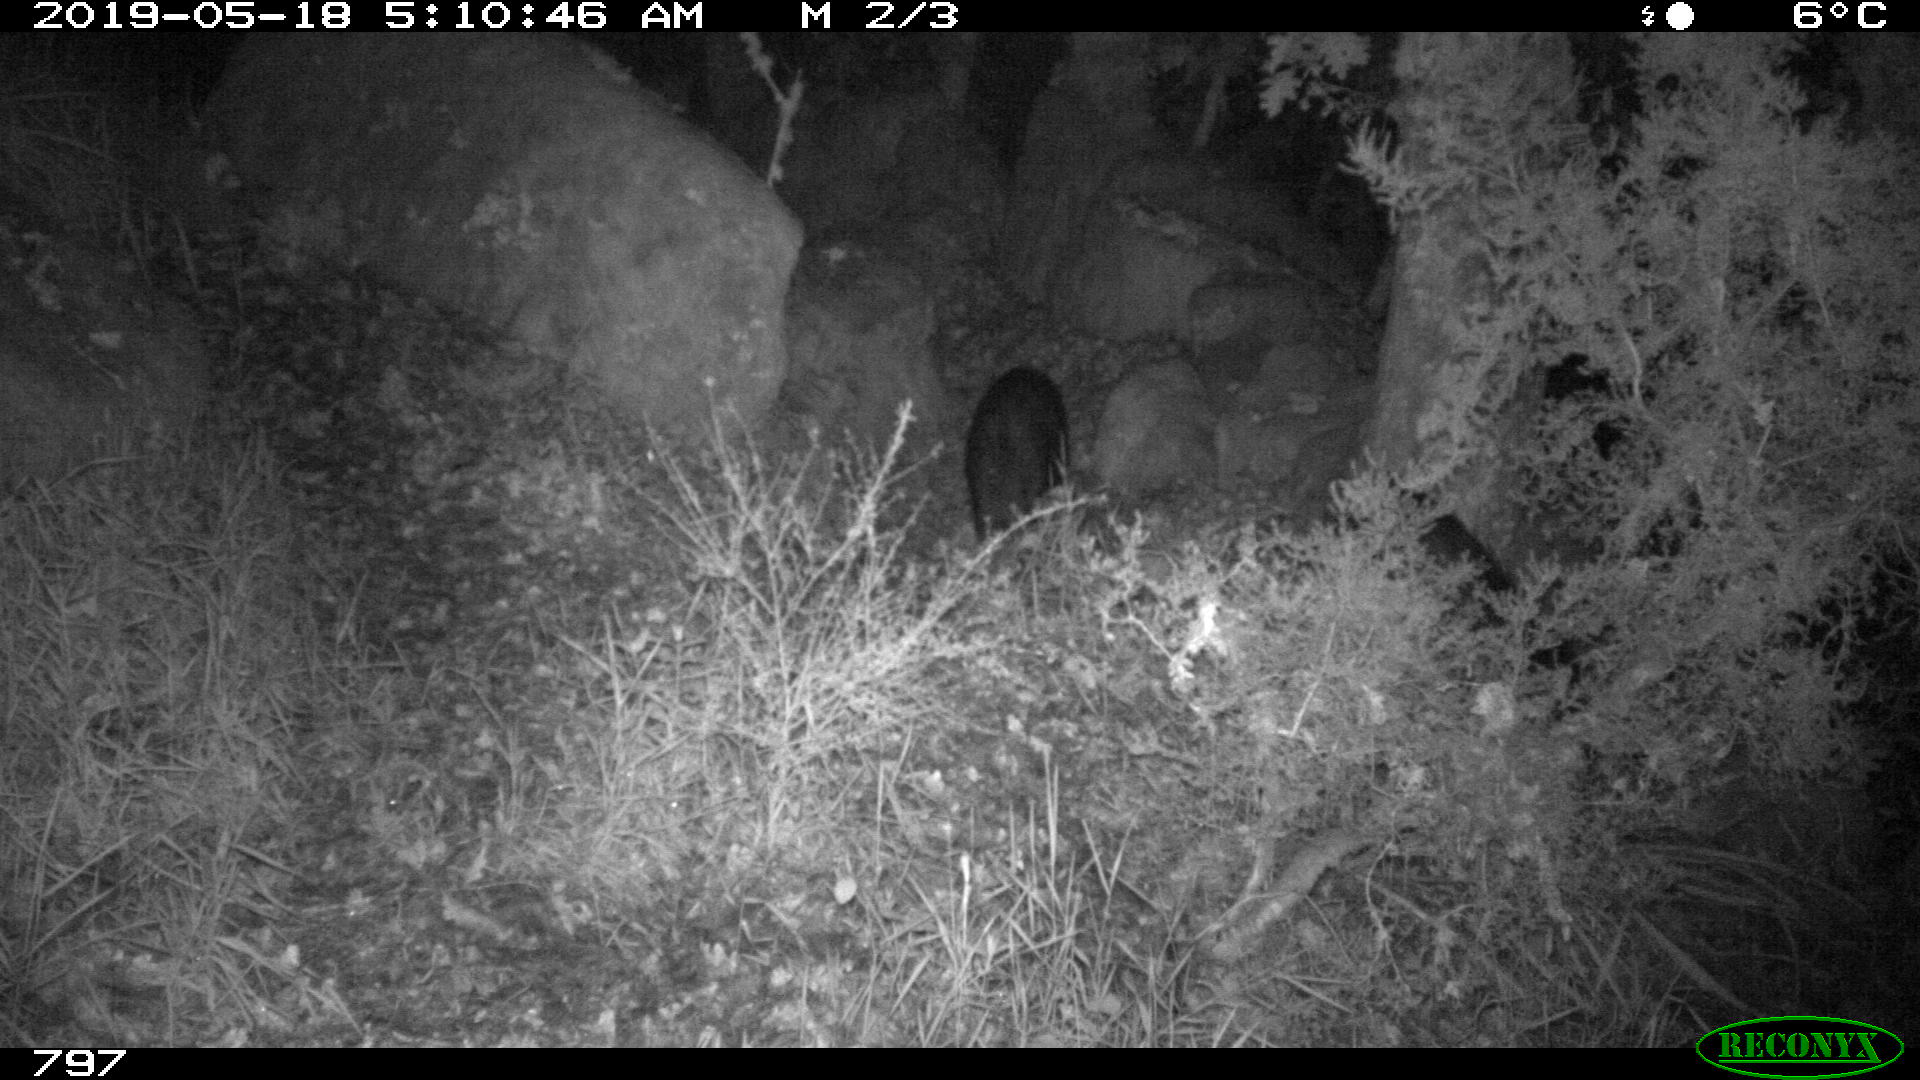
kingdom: Animalia
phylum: Chordata
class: Mammalia
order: Artiodactyla
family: Suidae
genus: Sus
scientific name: Sus scrofa
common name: Wild boar
